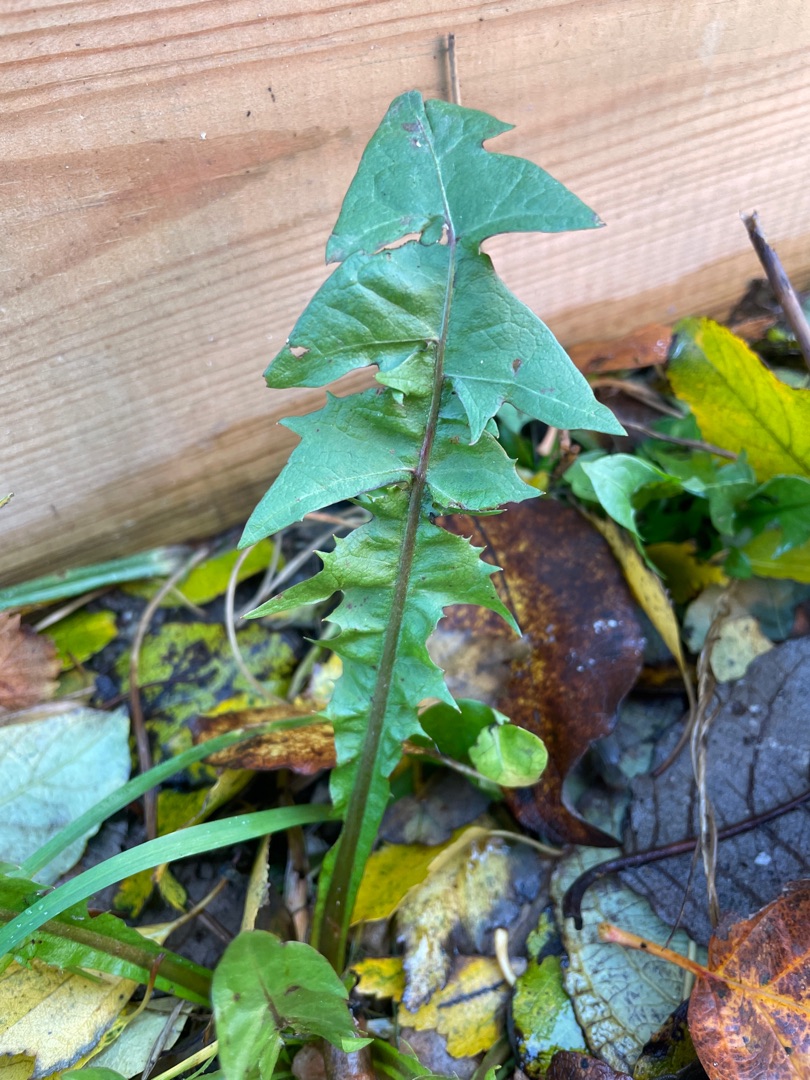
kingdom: Plantae
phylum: Tracheophyta
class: Magnoliopsida
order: Asterales
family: Asteraceae
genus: Taraxacum
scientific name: Taraxacum
